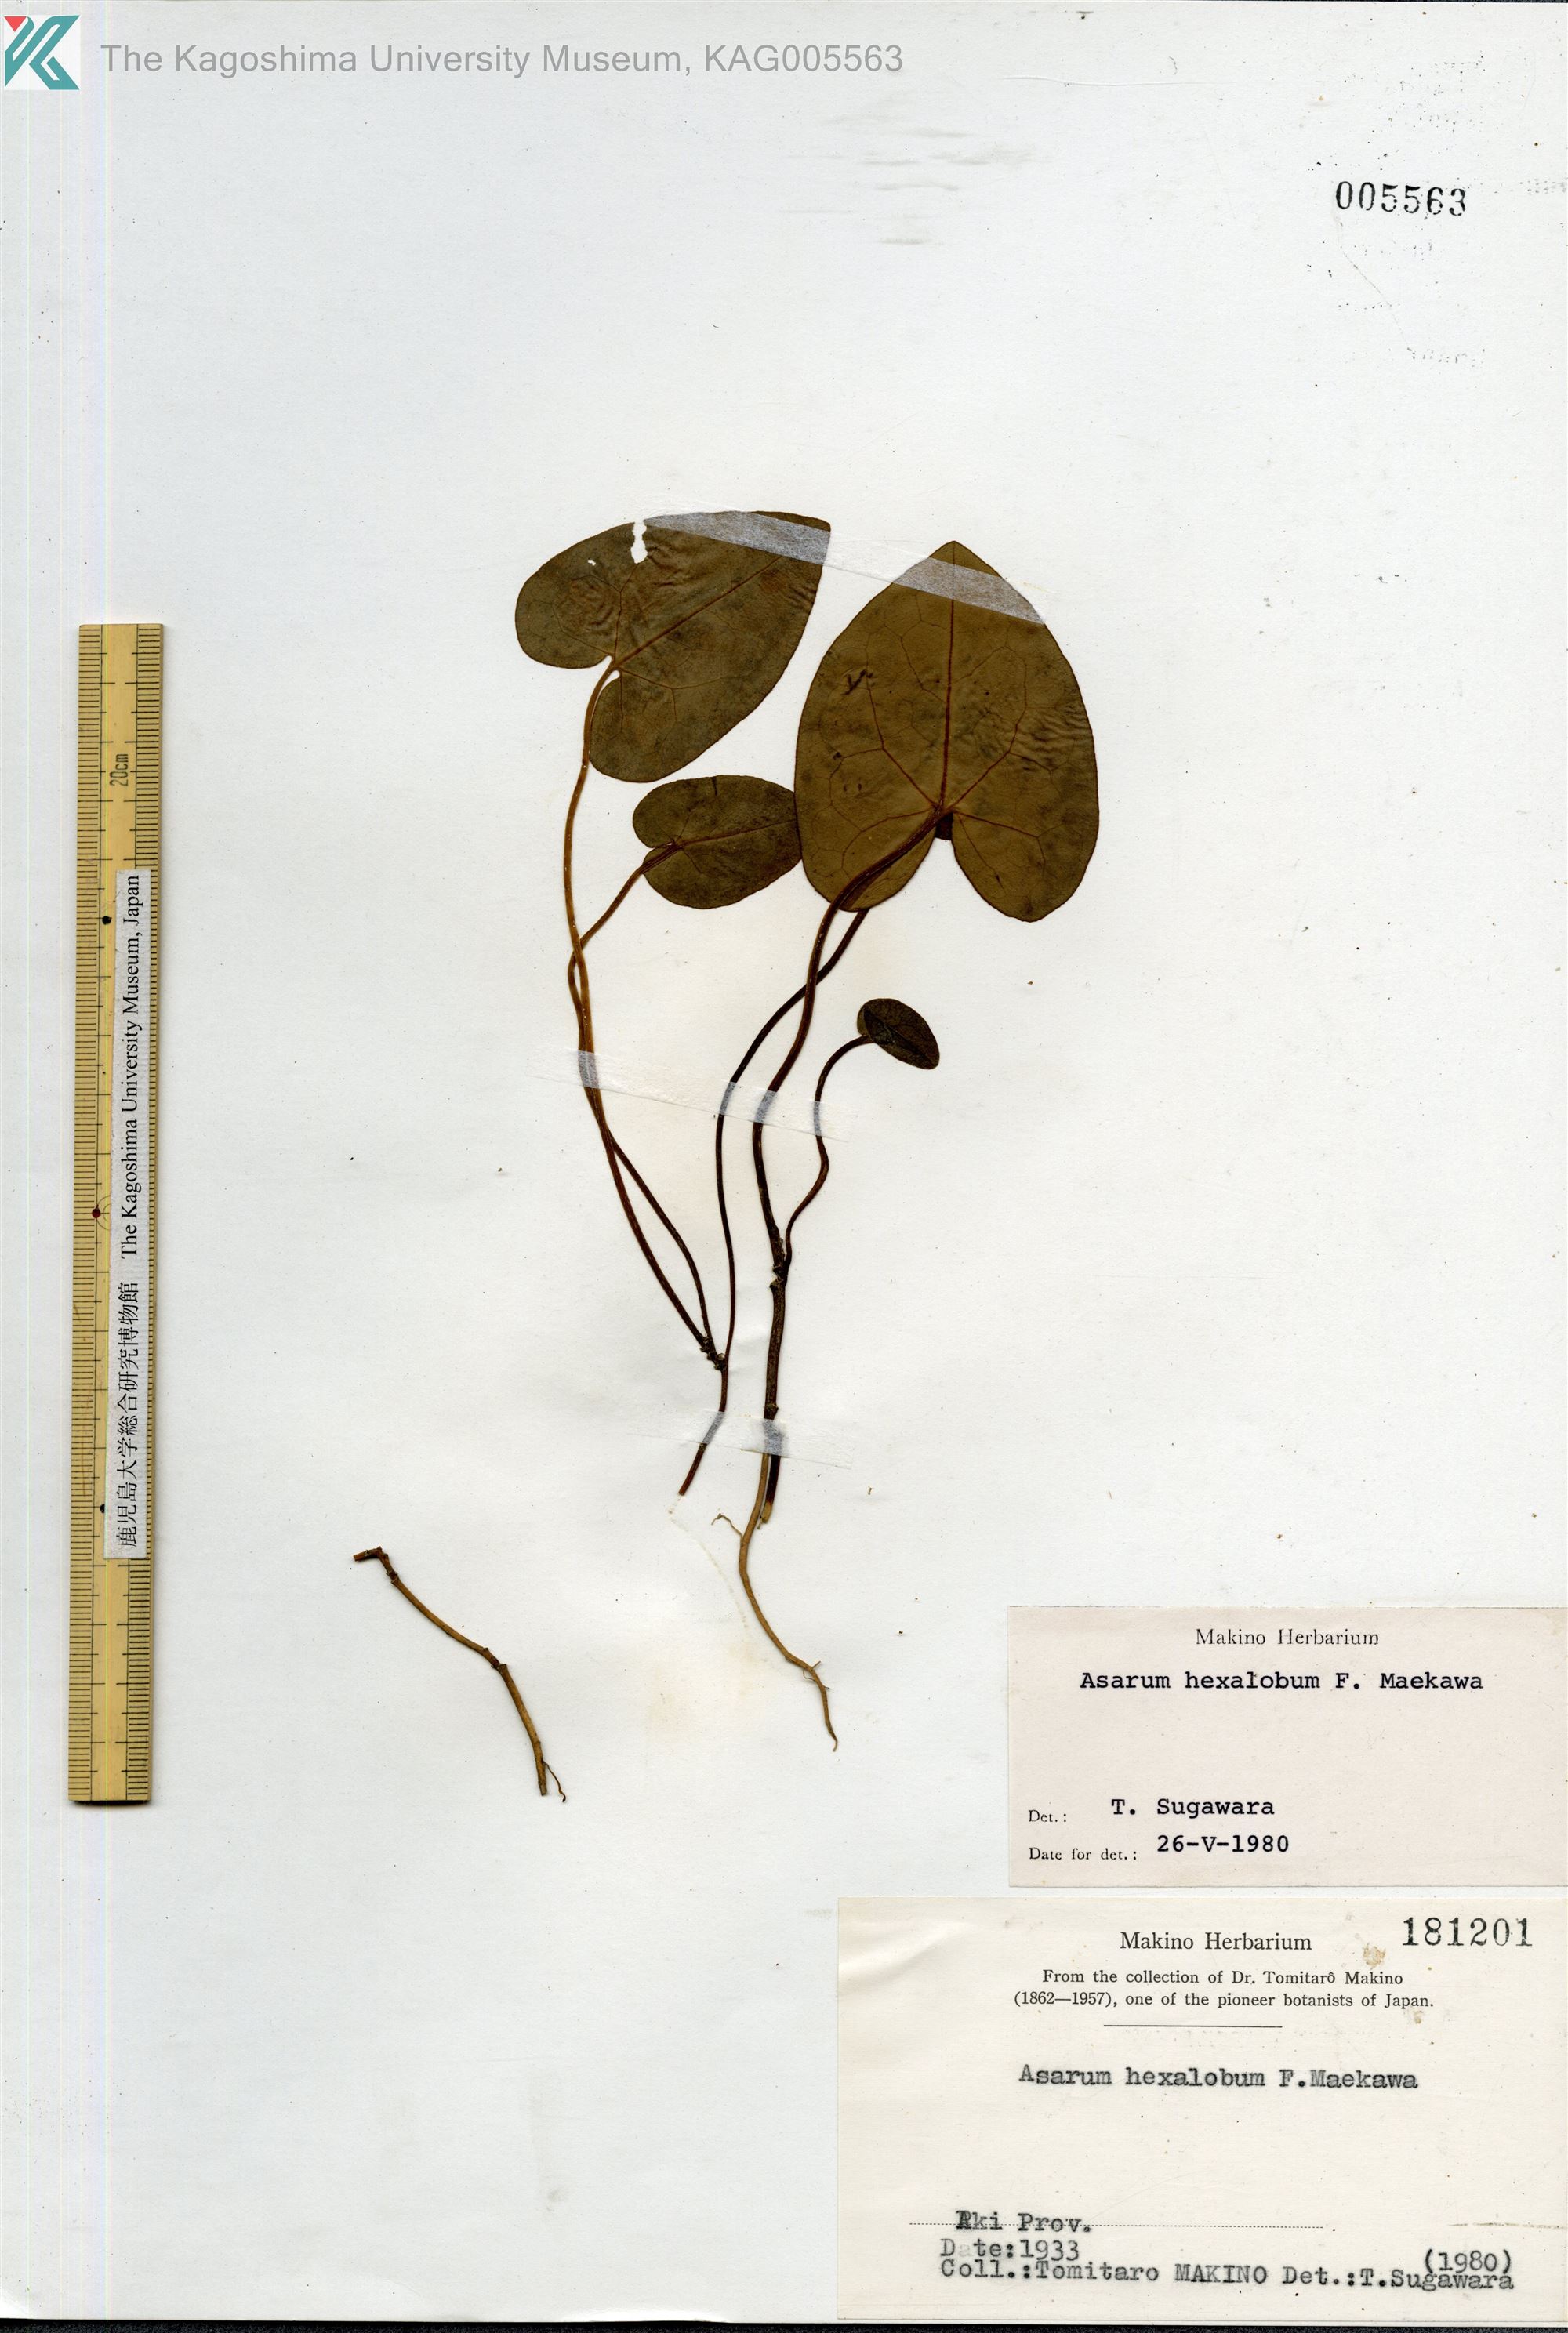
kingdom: Plantae
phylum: Tracheophyta
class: Magnoliopsida
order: Piperales
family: Aristolochiaceae
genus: Asarum
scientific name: Asarum hexalobum
